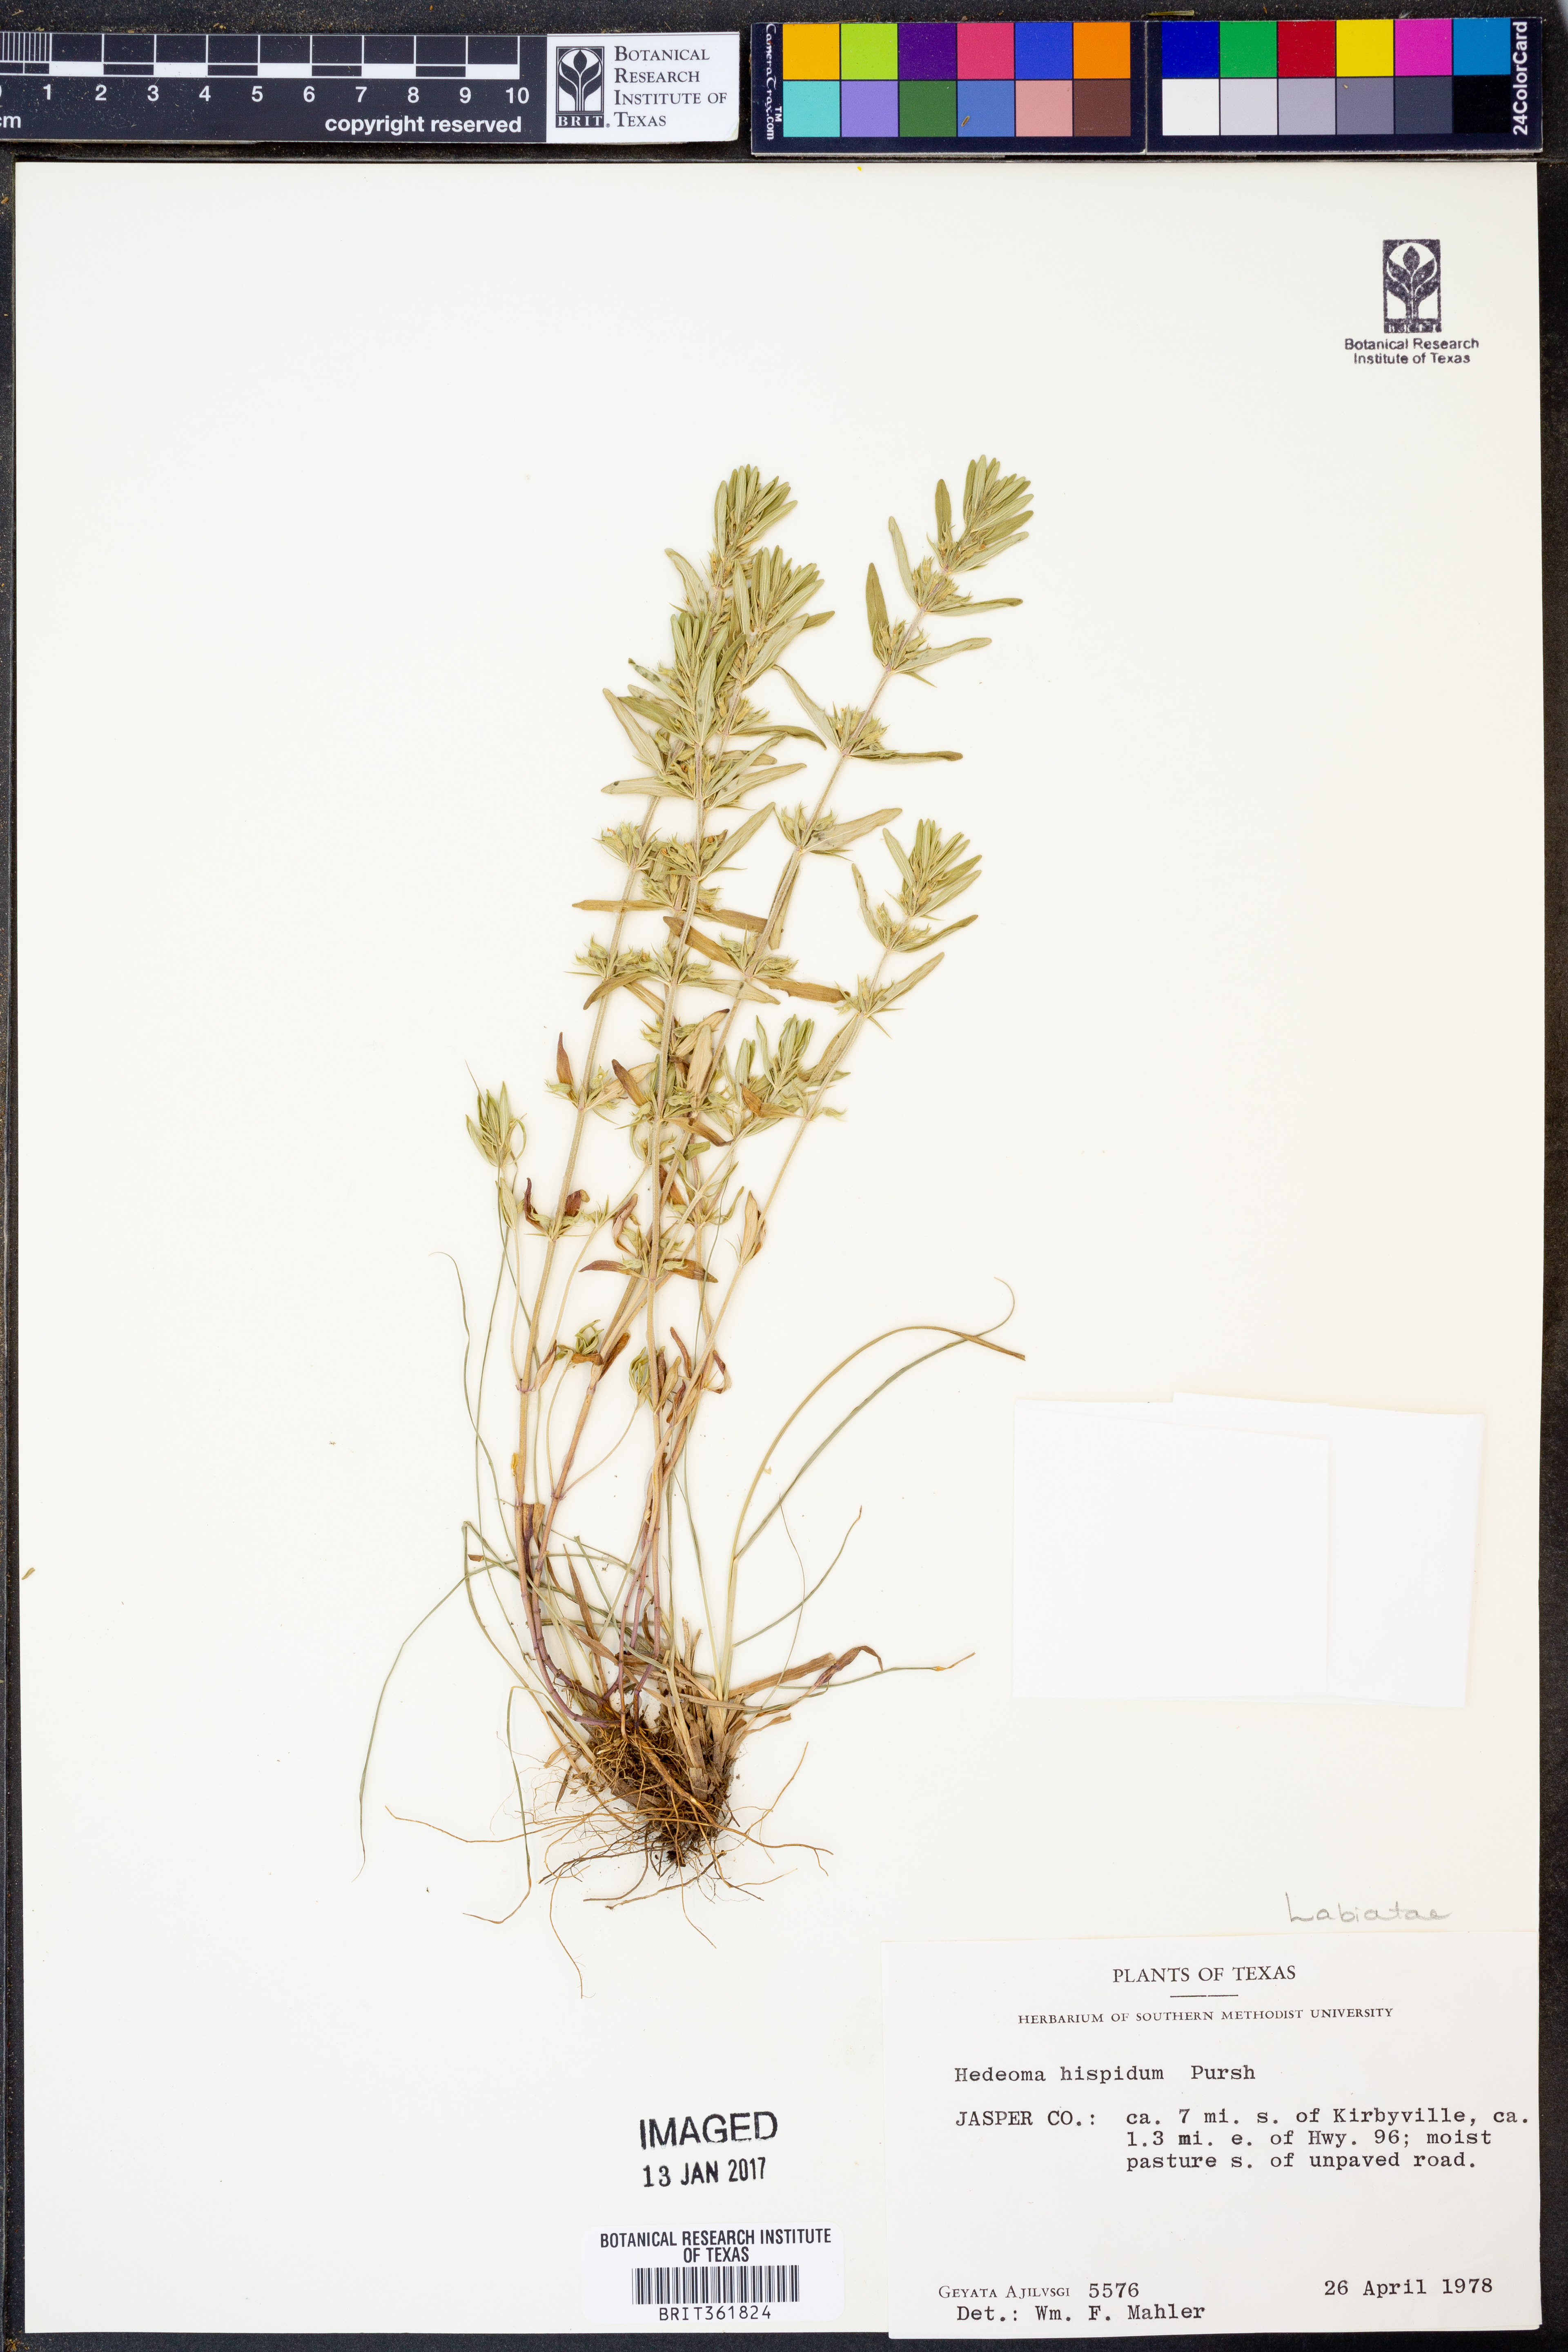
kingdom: Plantae
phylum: Tracheophyta
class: Magnoliopsida
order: Lamiales
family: Lamiaceae
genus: Hedeoma
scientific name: Hedeoma hispida
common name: Mock pennyroyal
